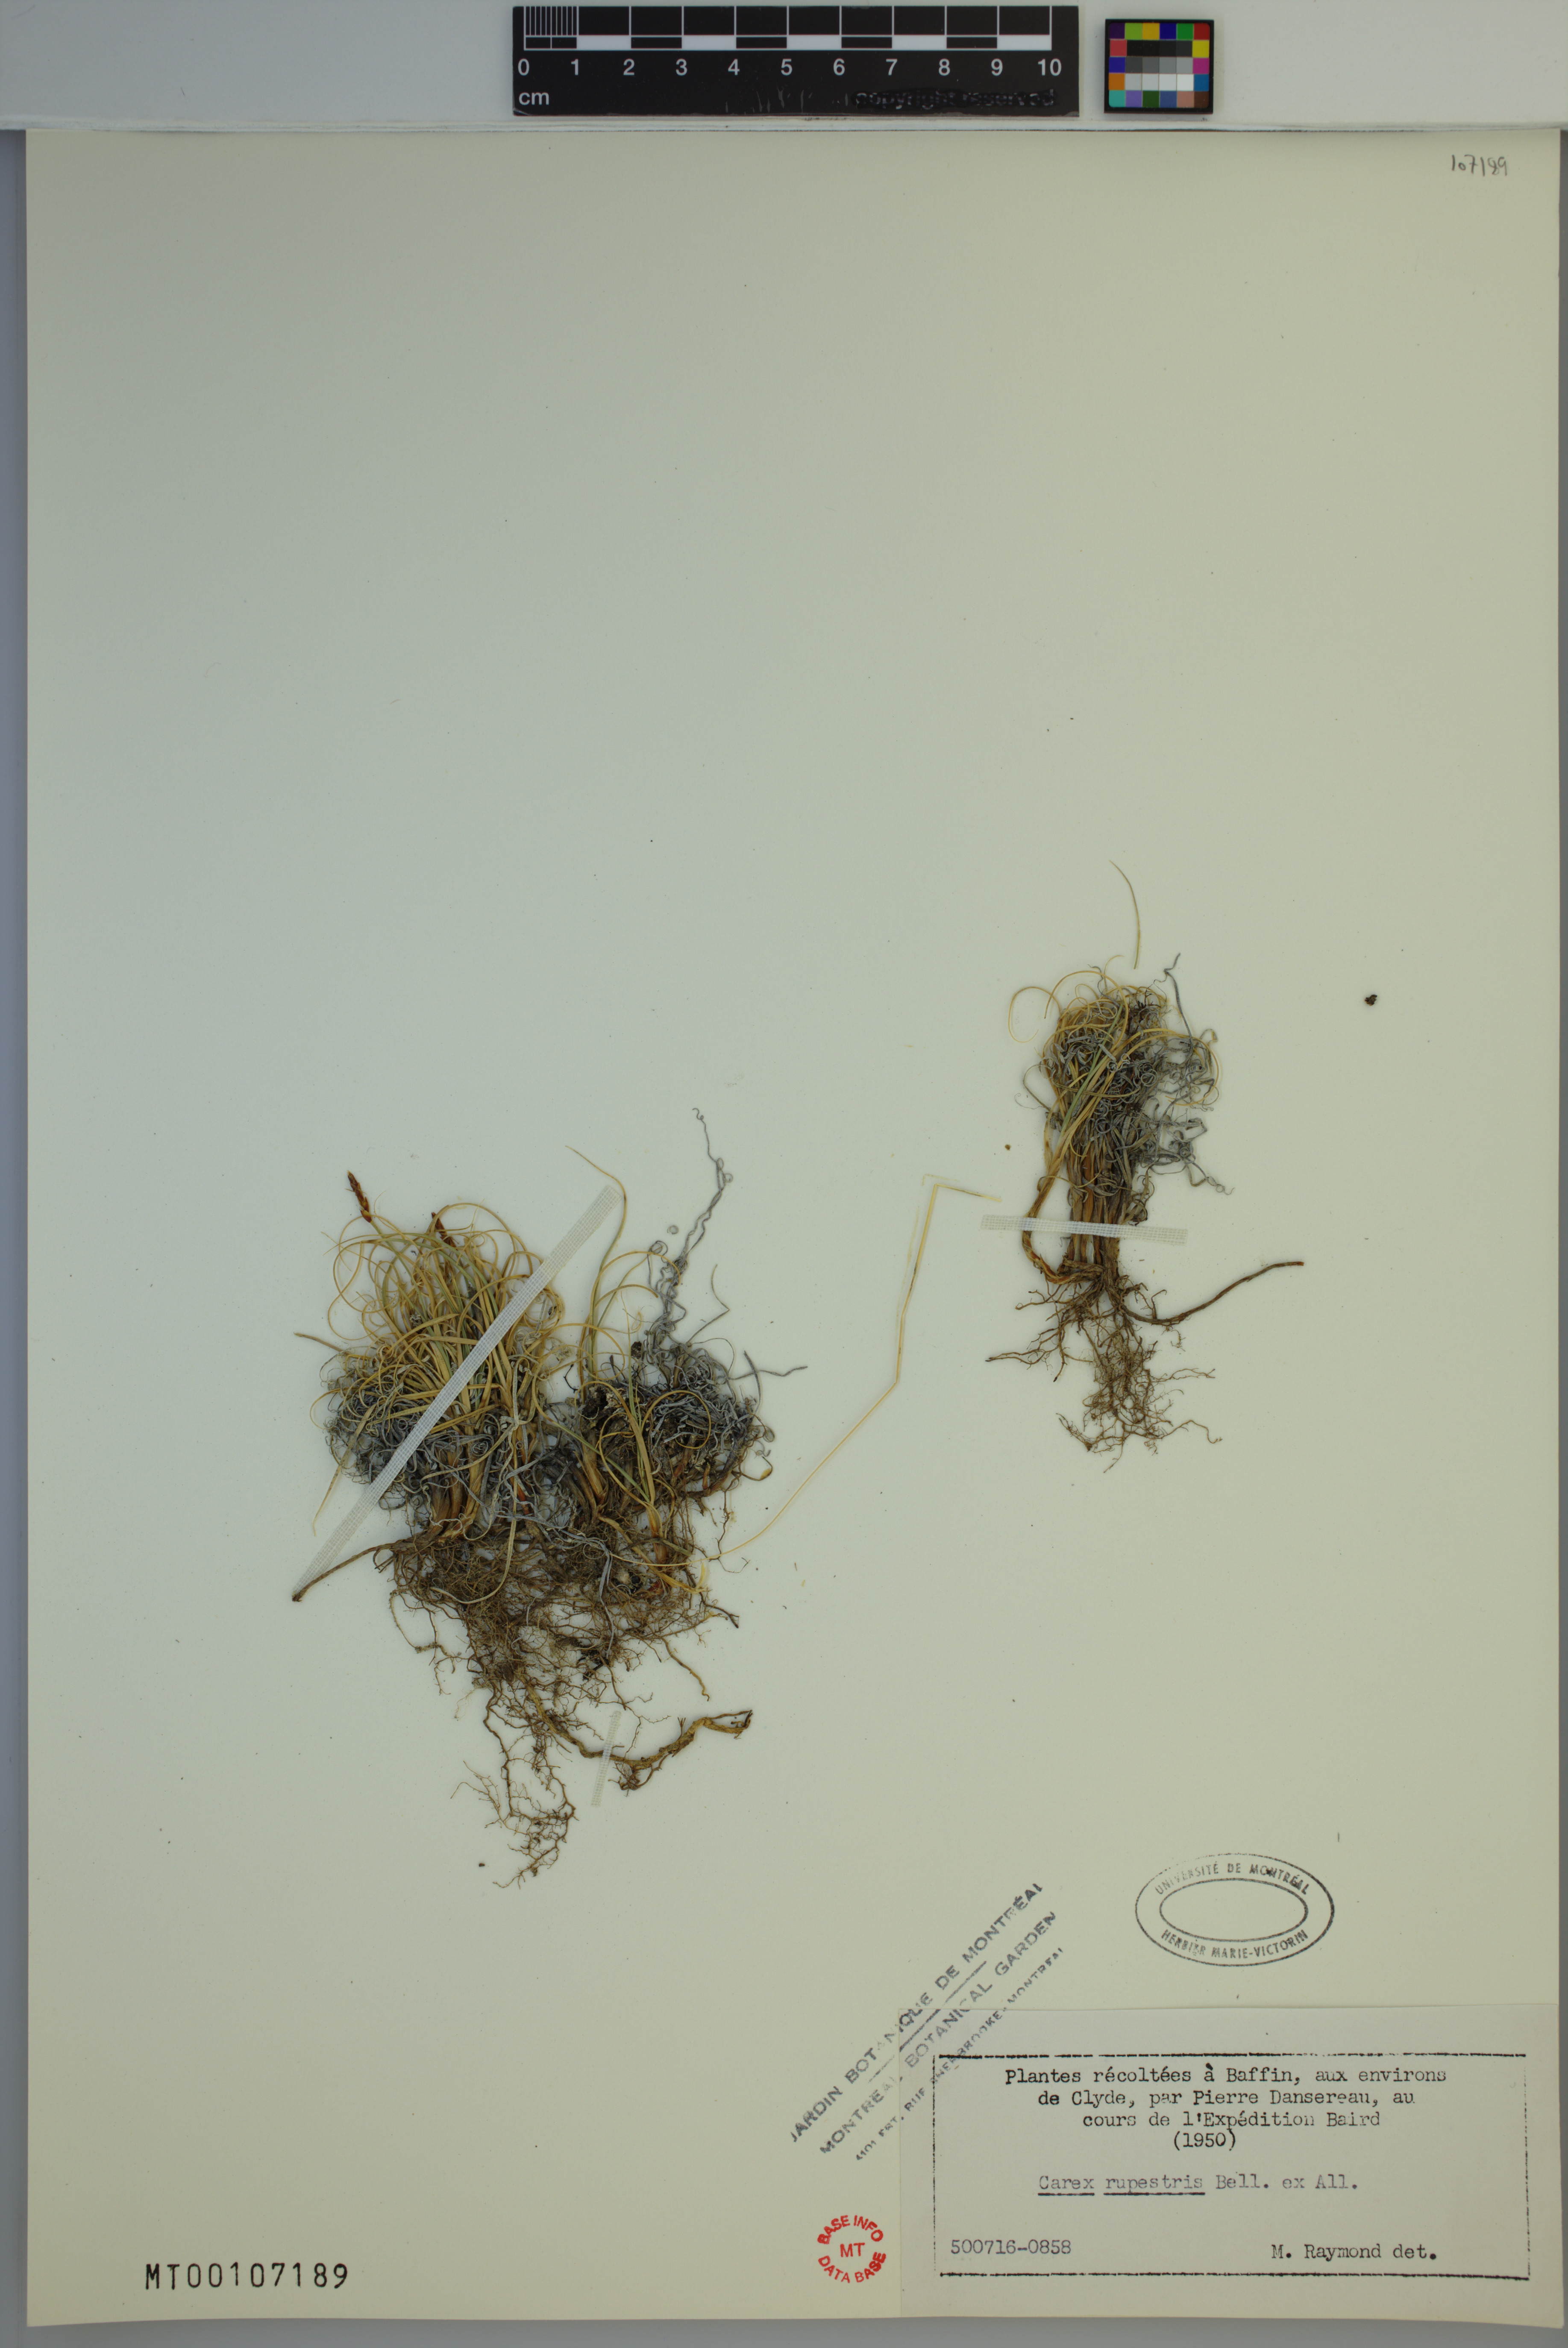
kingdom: Plantae
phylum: Tracheophyta
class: Liliopsida
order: Poales
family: Cyperaceae
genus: Carex
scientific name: Carex rupestris
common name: Rock sedge
